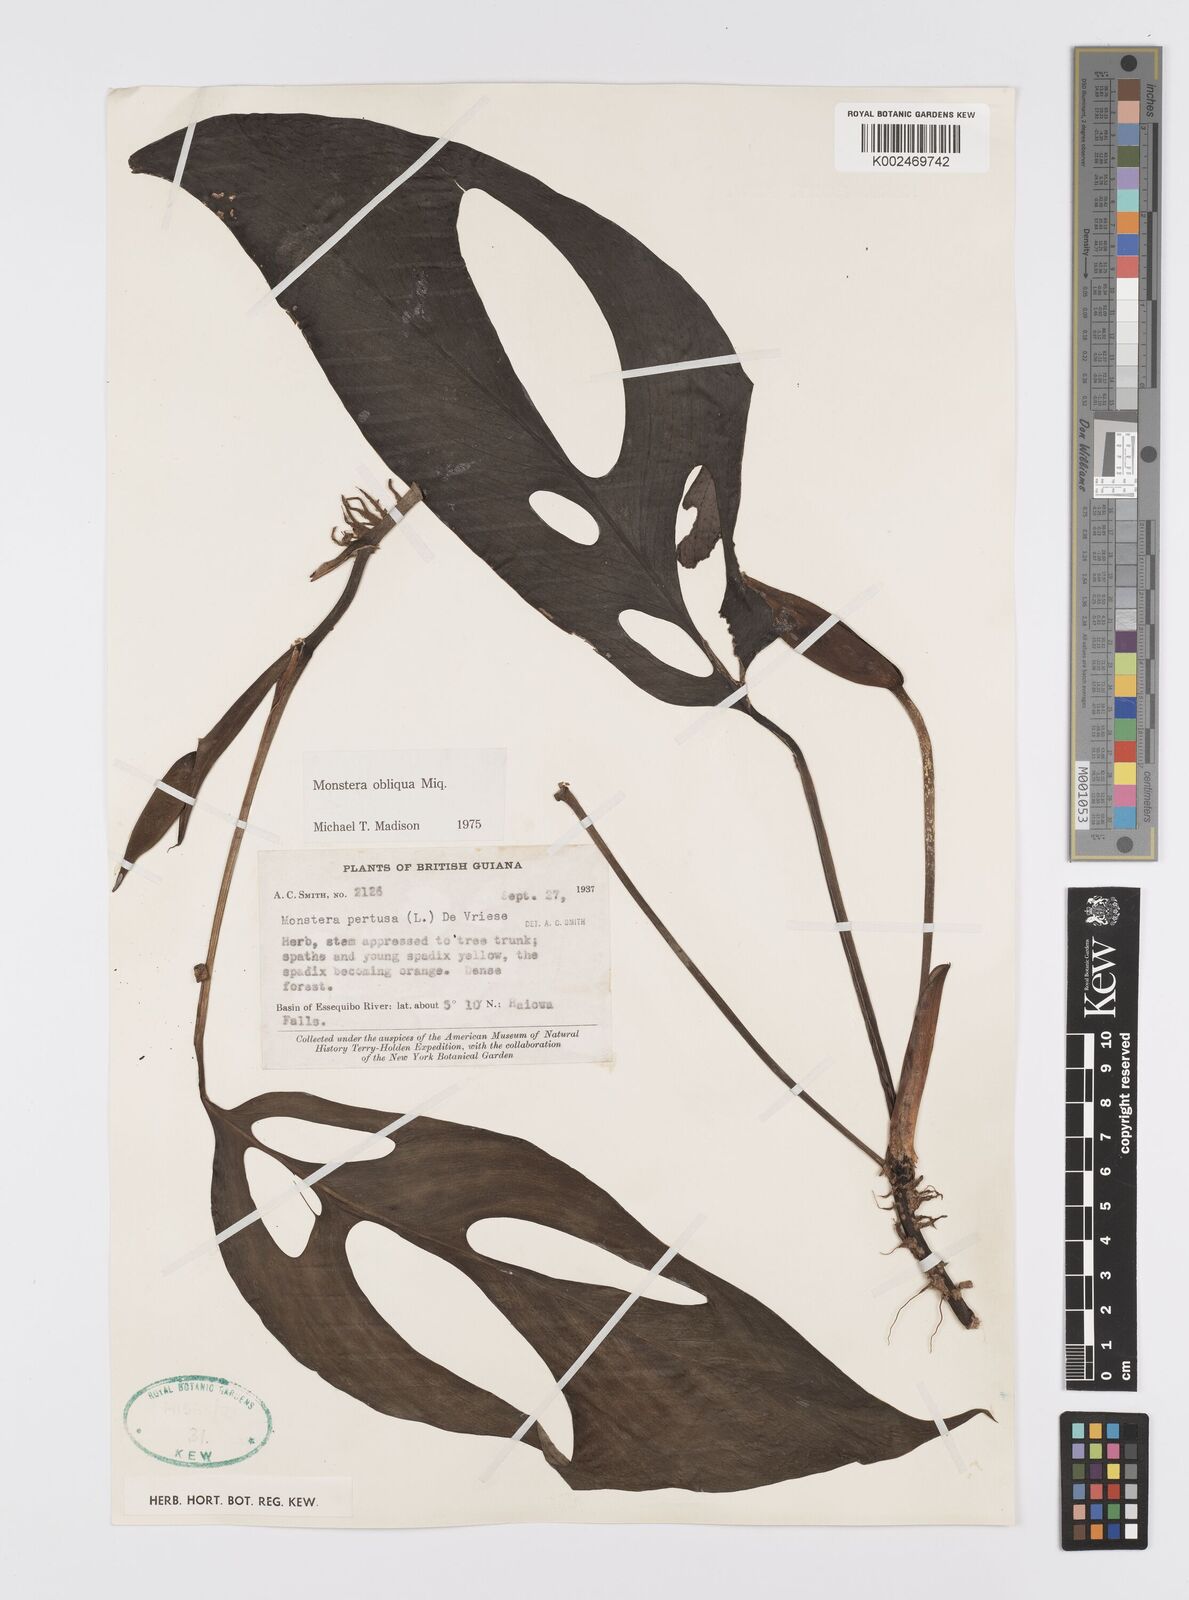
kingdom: Plantae
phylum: Tracheophyta
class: Liliopsida
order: Alismatales
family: Araceae
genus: Monstera
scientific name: Monstera obliqua
